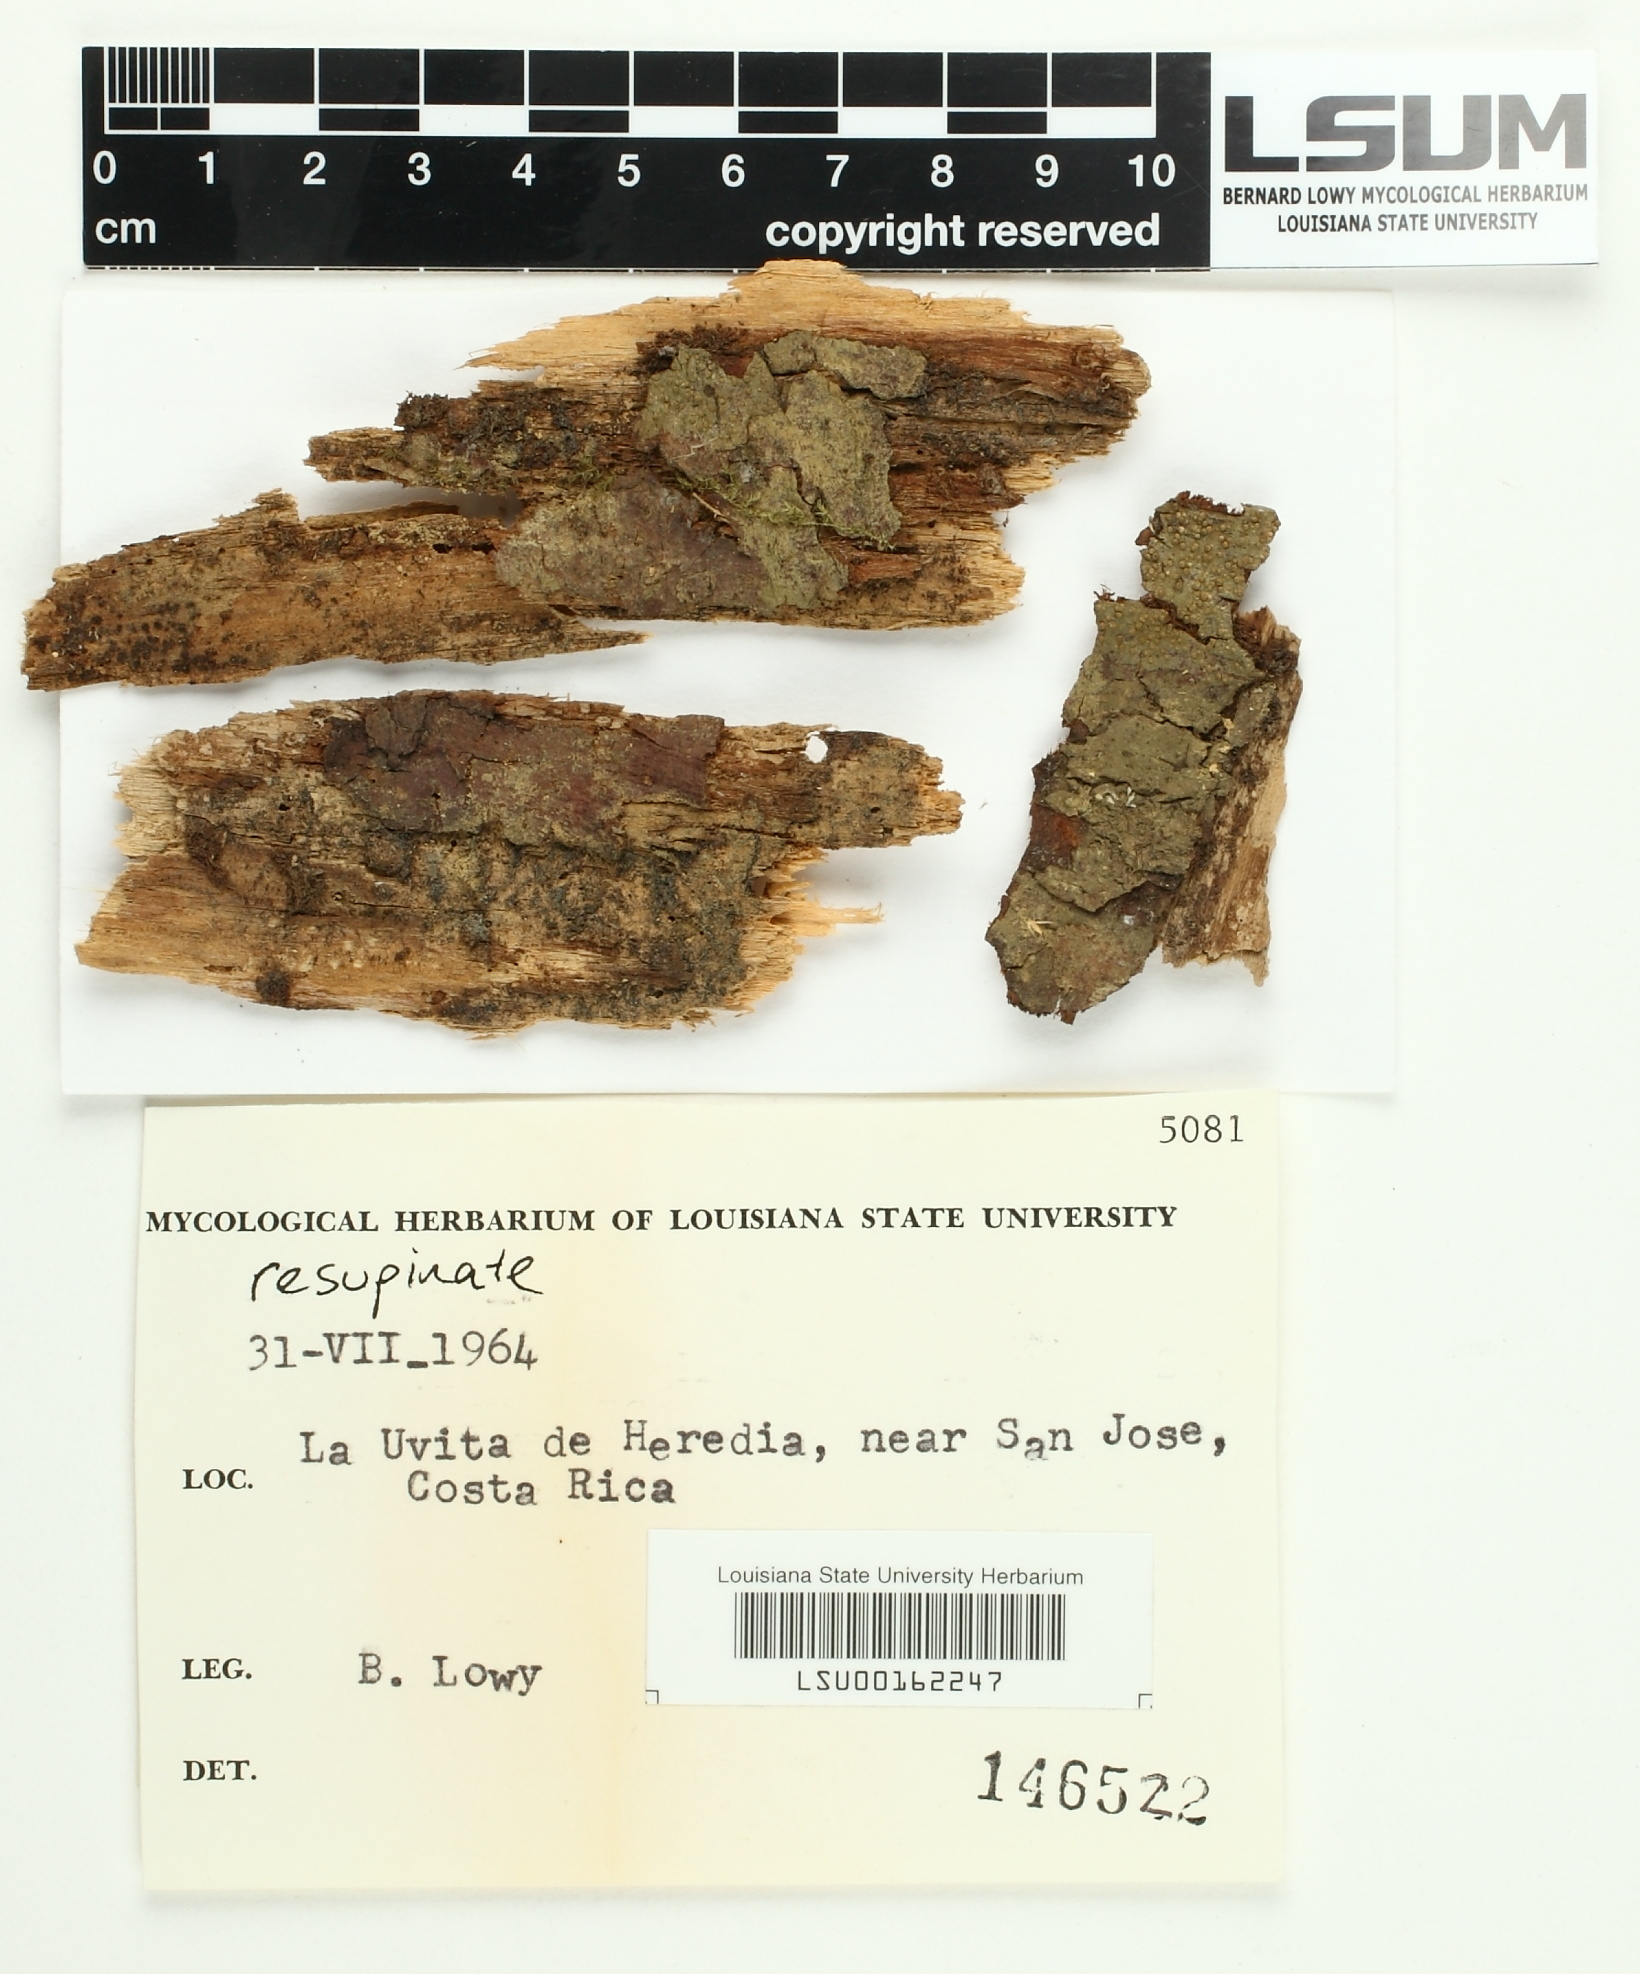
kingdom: Fungi
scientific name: Fungi
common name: Fungi
